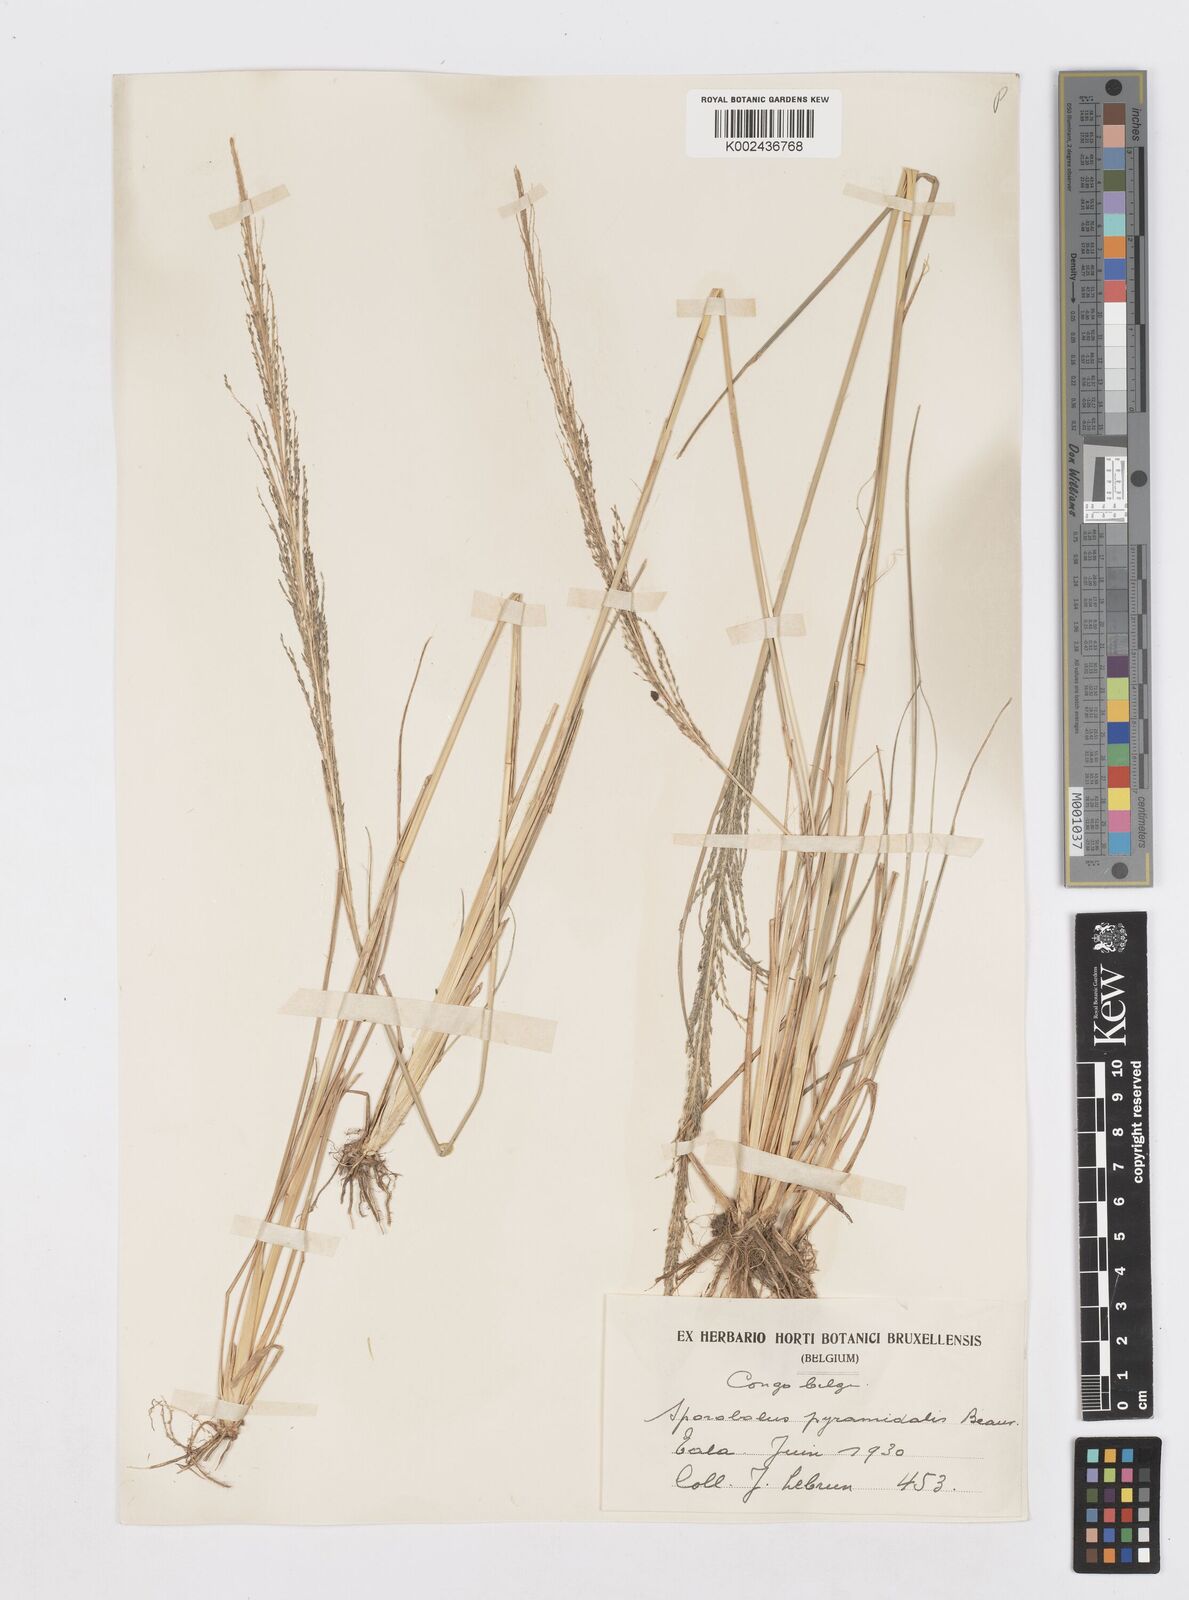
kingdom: Plantae
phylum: Tracheophyta
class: Liliopsida
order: Poales
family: Poaceae
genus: Sporobolus
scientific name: Sporobolus pyramidalis
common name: West indian dropseed
